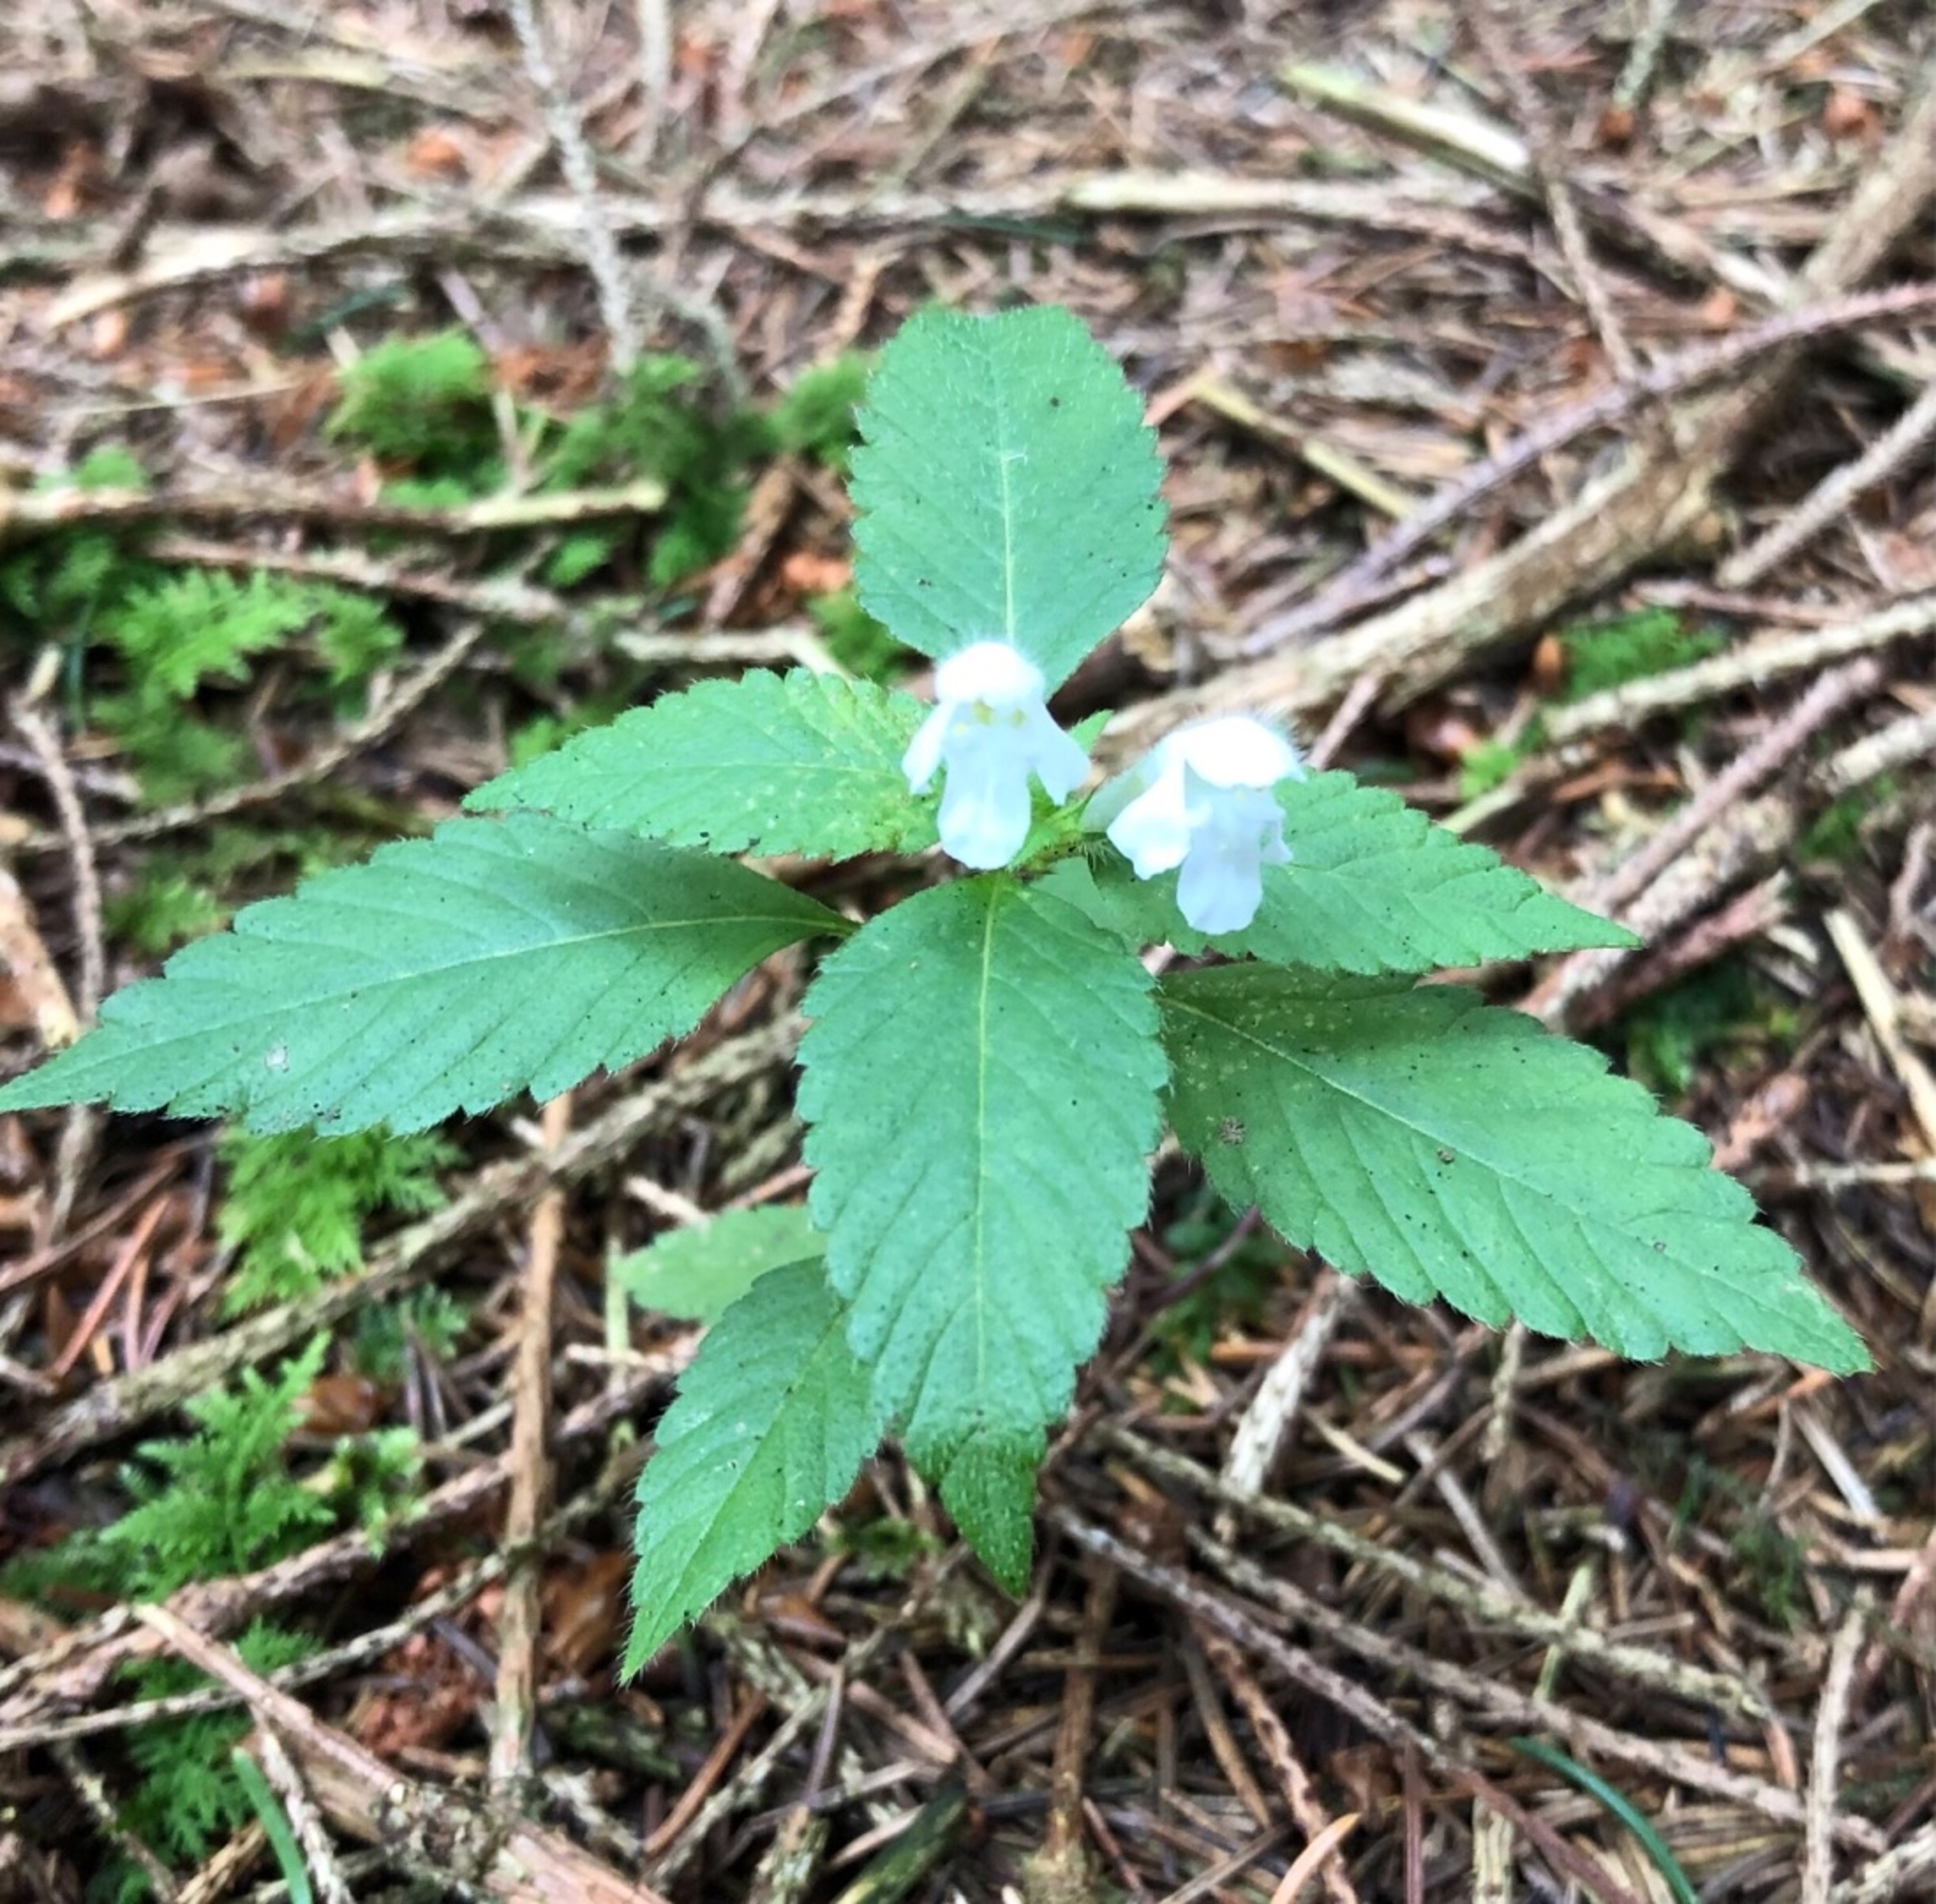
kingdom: Plantae
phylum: Tracheophyta
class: Magnoliopsida
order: Lamiales
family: Lamiaceae
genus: Galeopsis
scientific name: Galeopsis tetrahit
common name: Almindelig hanekro
